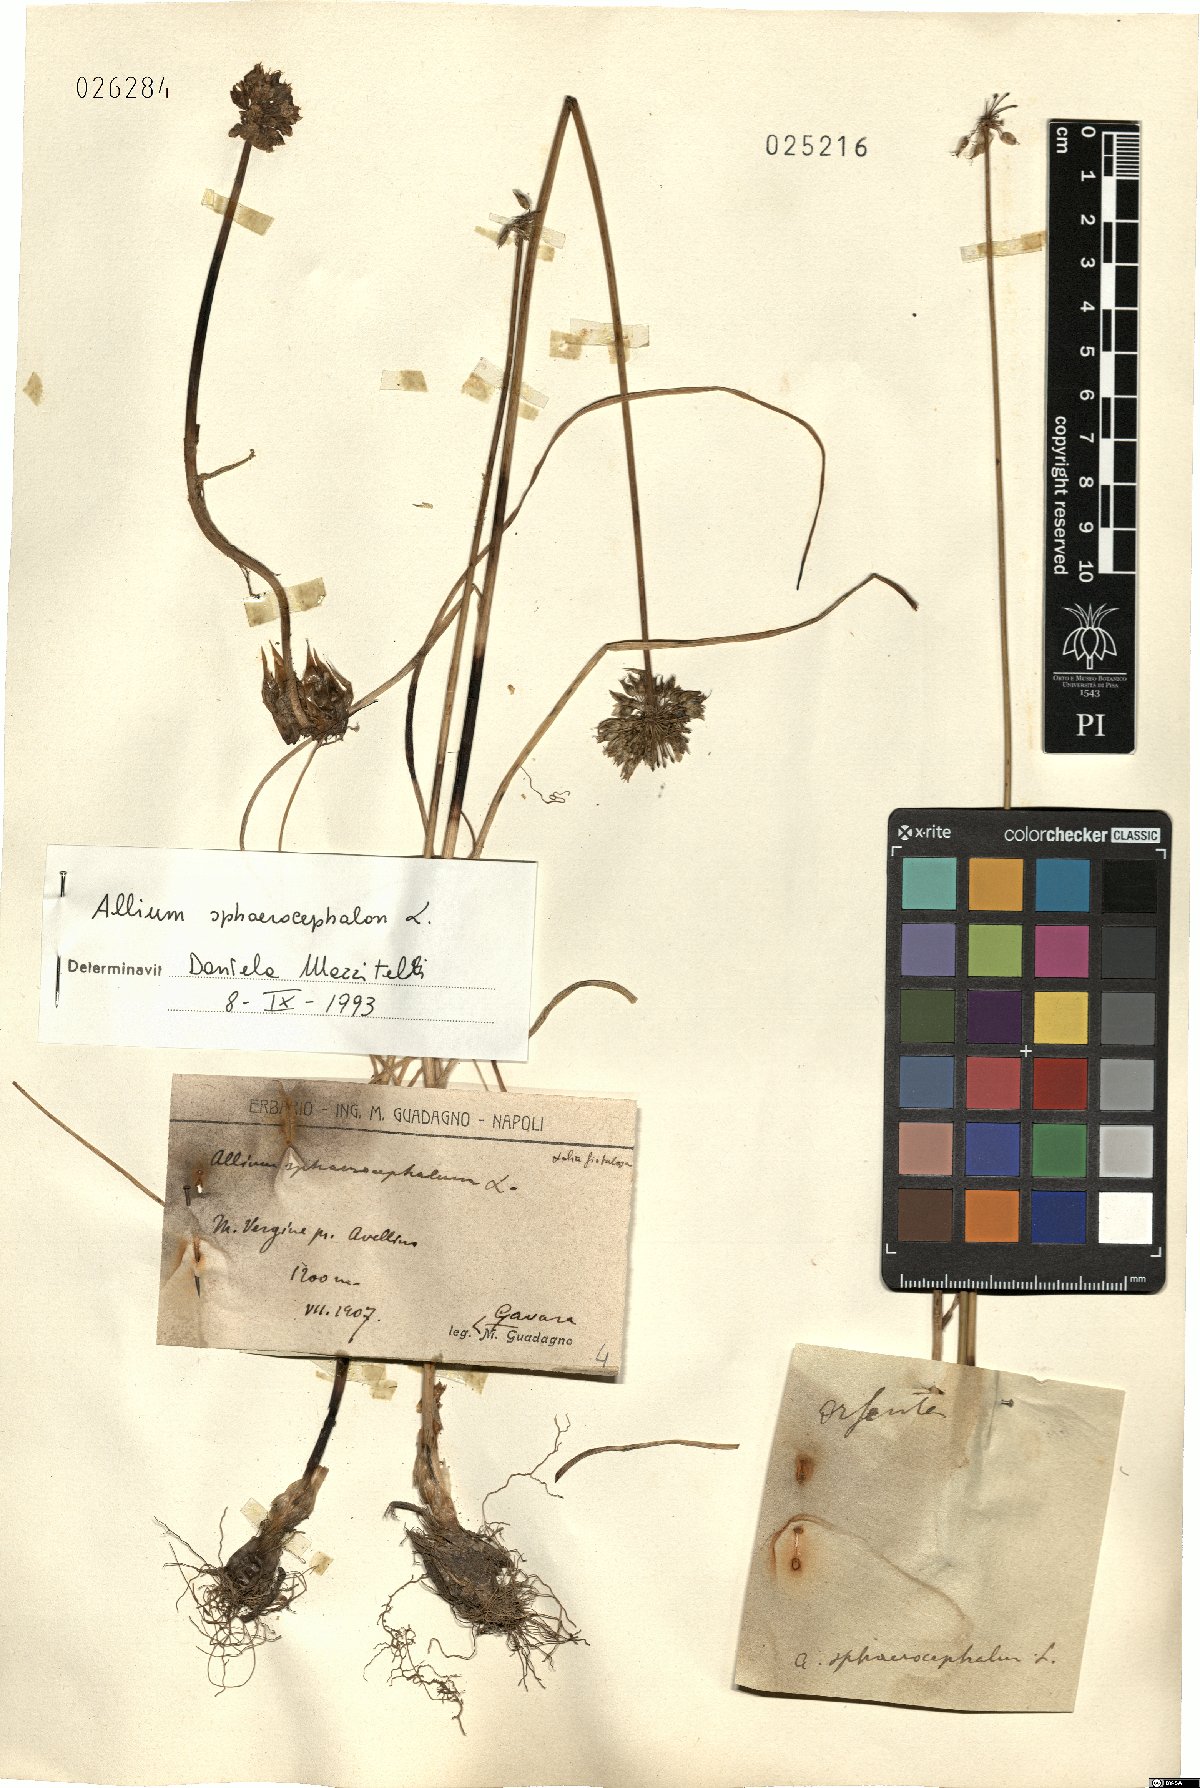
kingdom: Plantae
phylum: Tracheophyta
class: Liliopsida
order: Asparagales
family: Amaryllidaceae
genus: Allium
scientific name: Allium sphaerocephalon
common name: Round-headed leek
